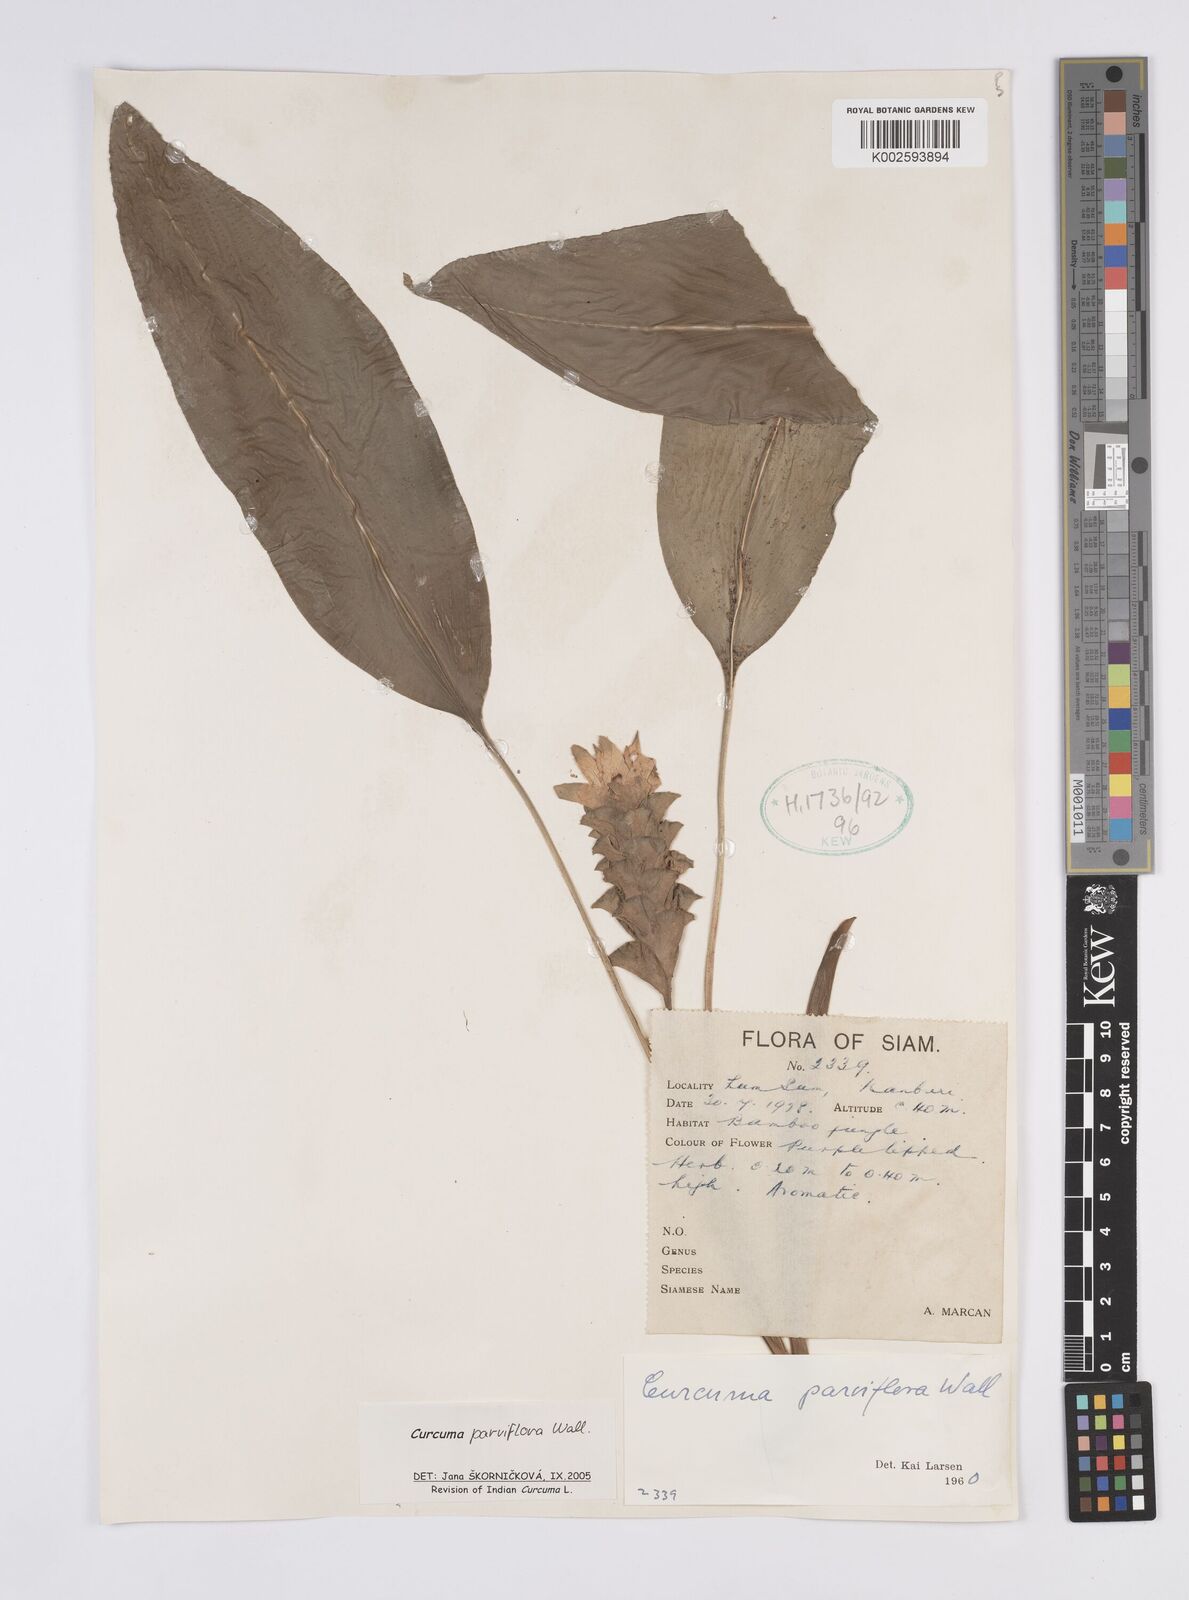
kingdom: Plantae
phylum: Tracheophyta
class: Liliopsida
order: Zingiberales
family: Zingiberaceae
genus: Curcuma
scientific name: Curcuma parviflora
